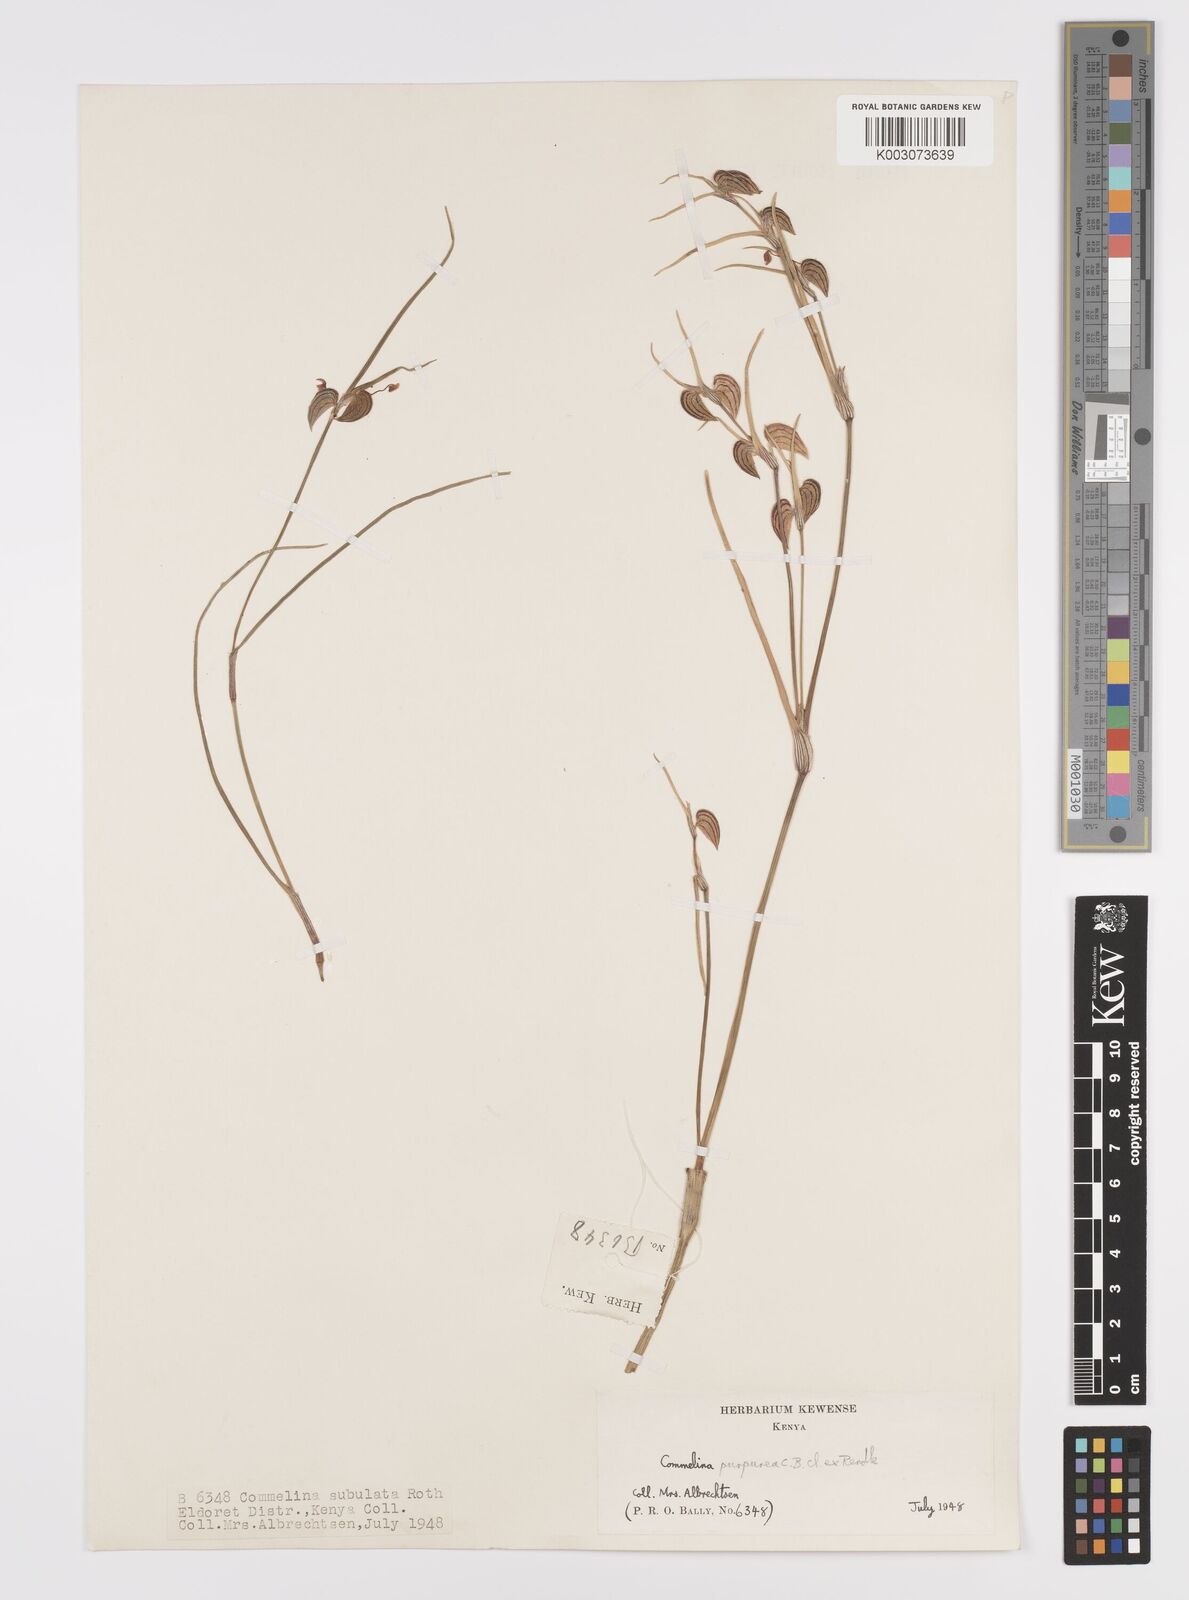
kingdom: Plantae
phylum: Tracheophyta
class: Liliopsida
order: Commelinales
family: Commelinaceae
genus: Commelina
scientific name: Commelina purpurea
